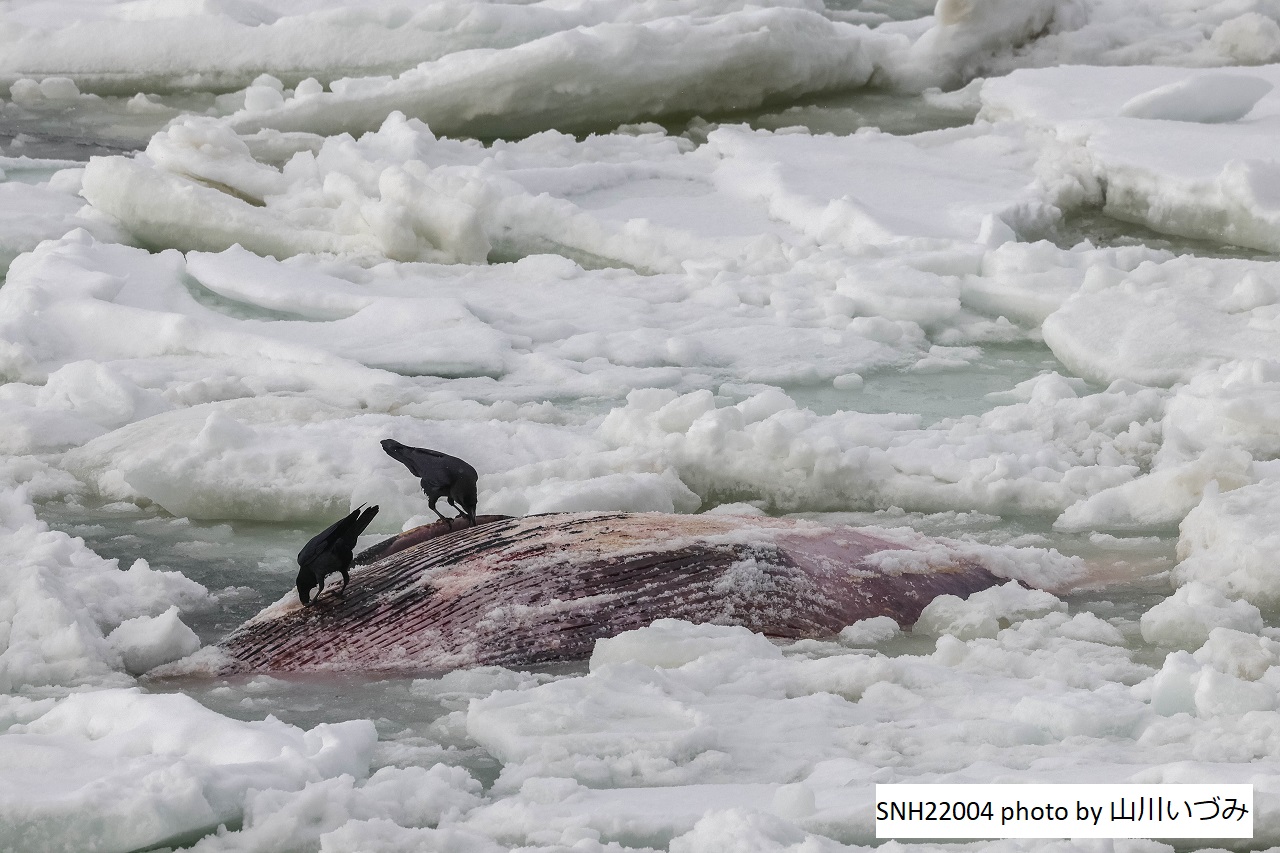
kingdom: Animalia
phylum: Chordata
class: Mammalia
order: Cetacea
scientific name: Cetacea
